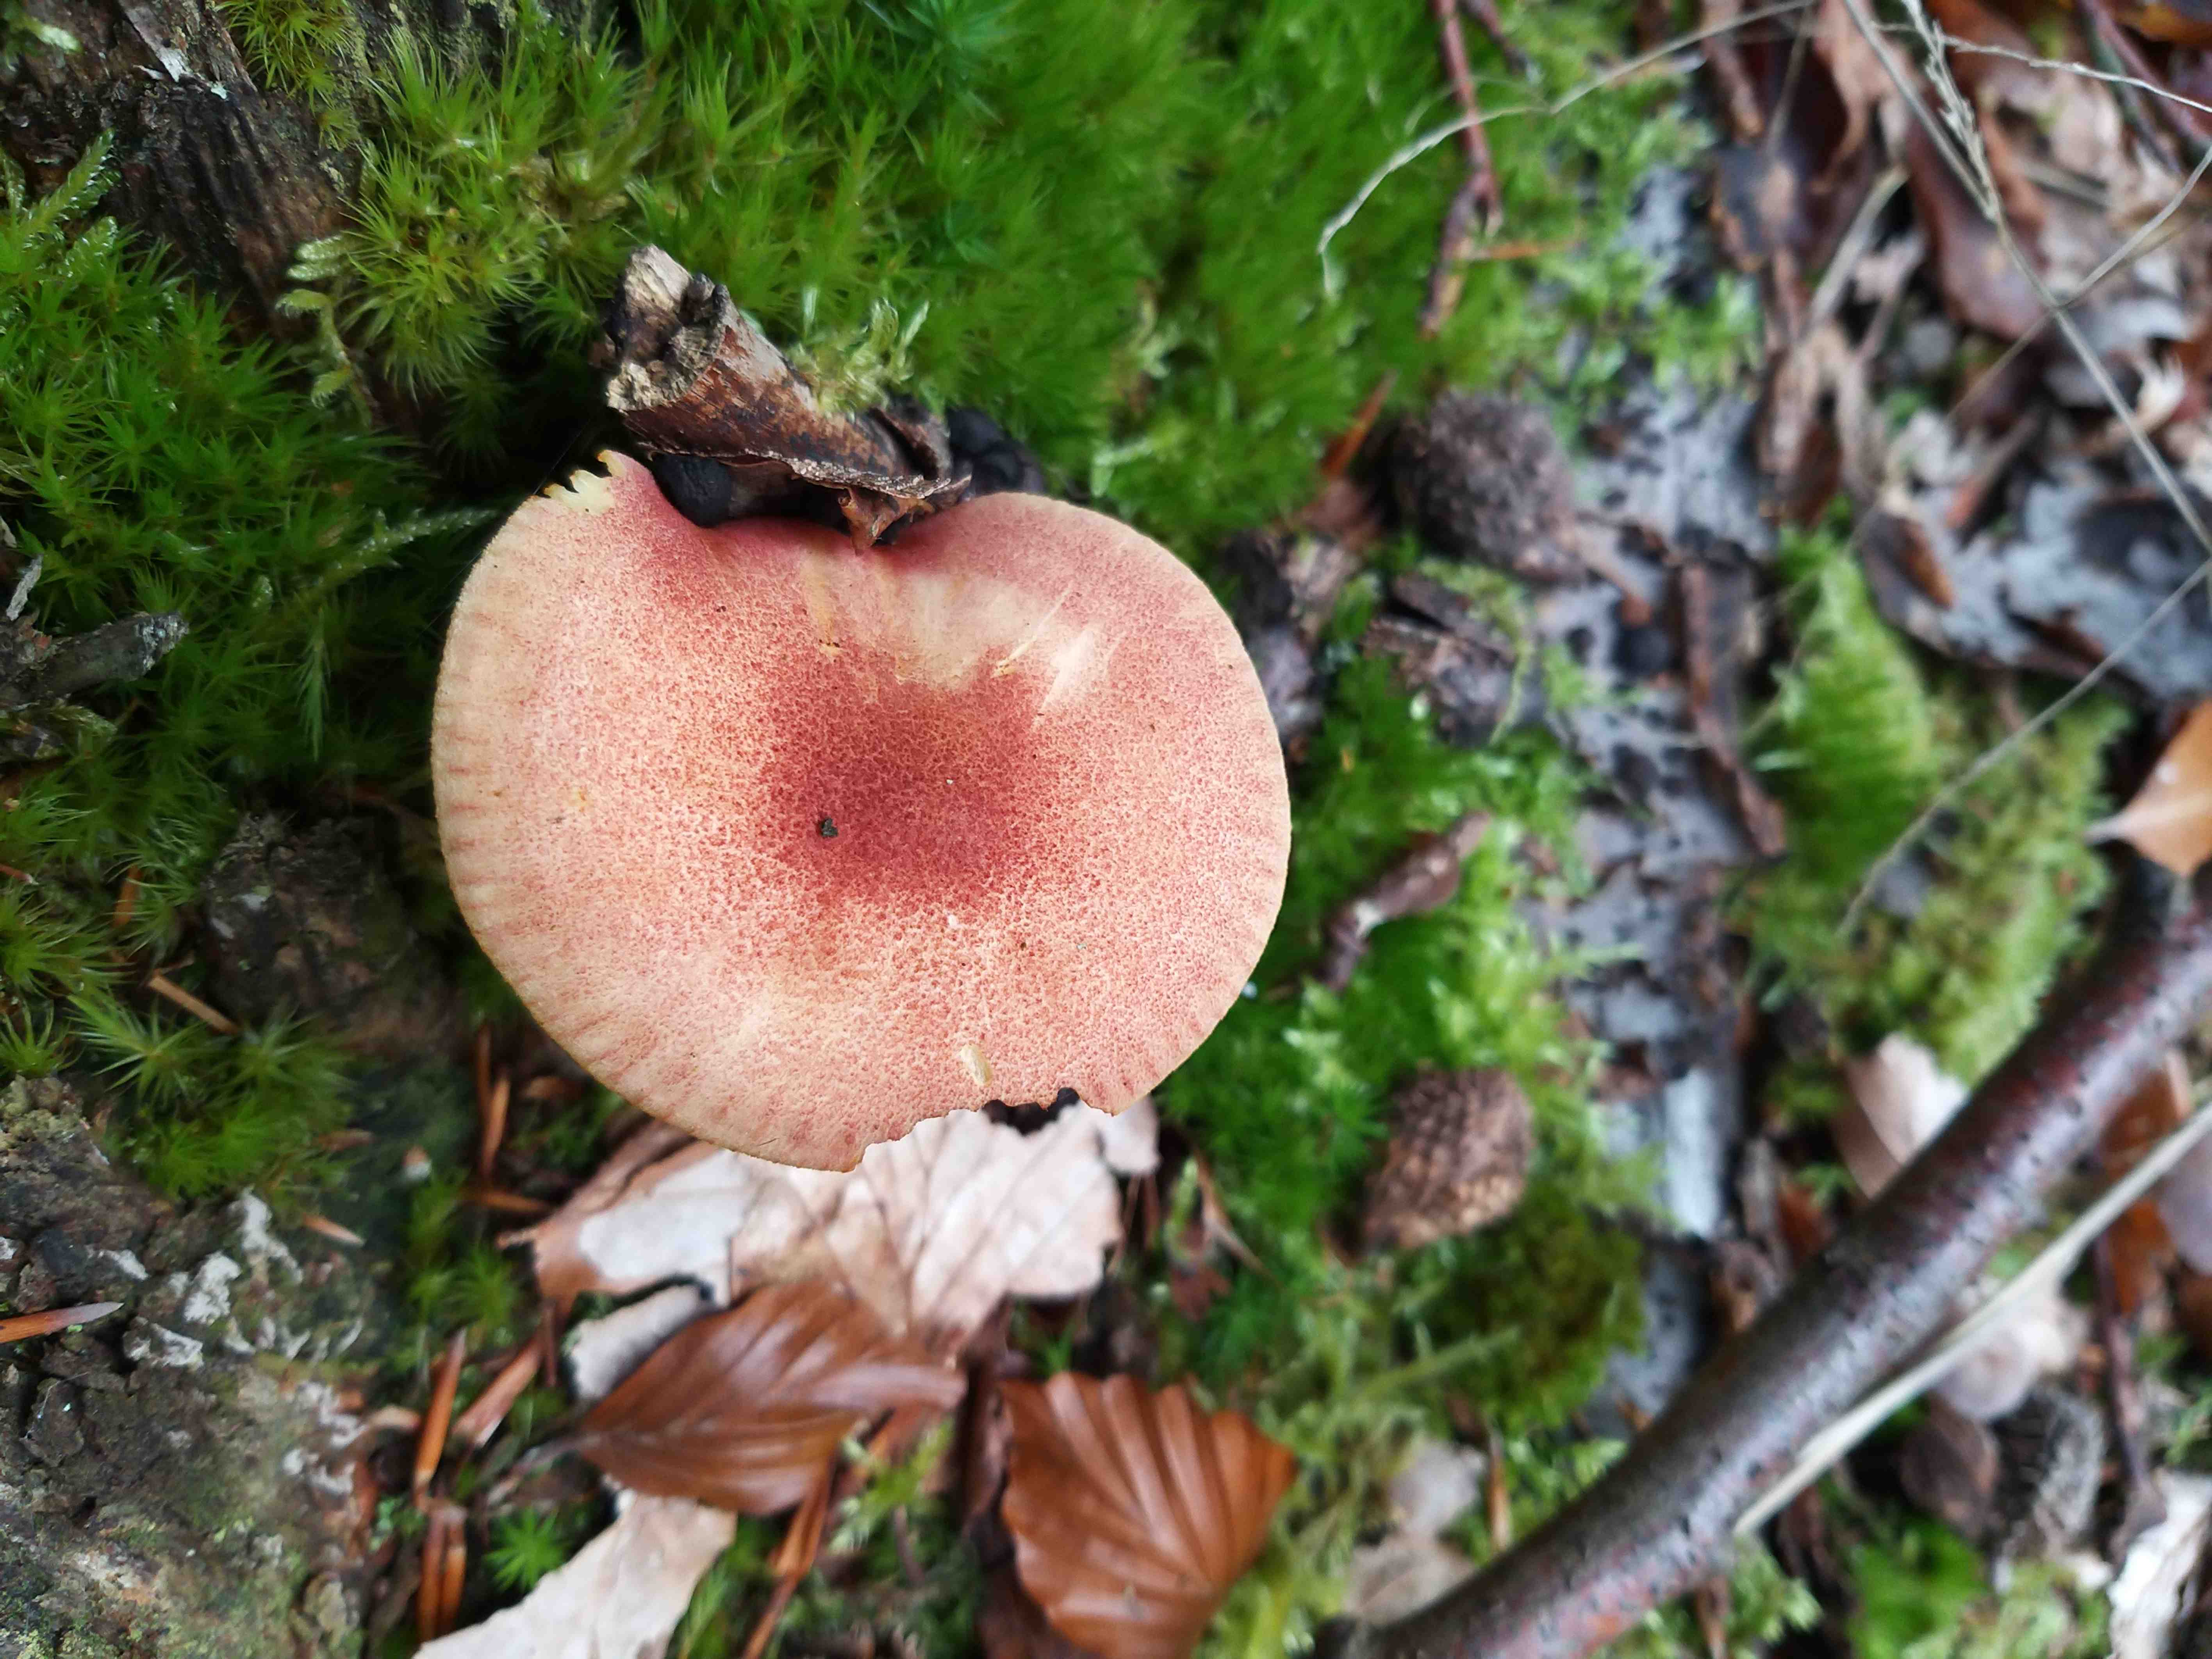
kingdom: Fungi
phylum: Basidiomycota
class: Agaricomycetes
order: Agaricales
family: Tricholomataceae
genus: Tricholomopsis
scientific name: Tricholomopsis rutilans
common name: purpur-væbnerhat
